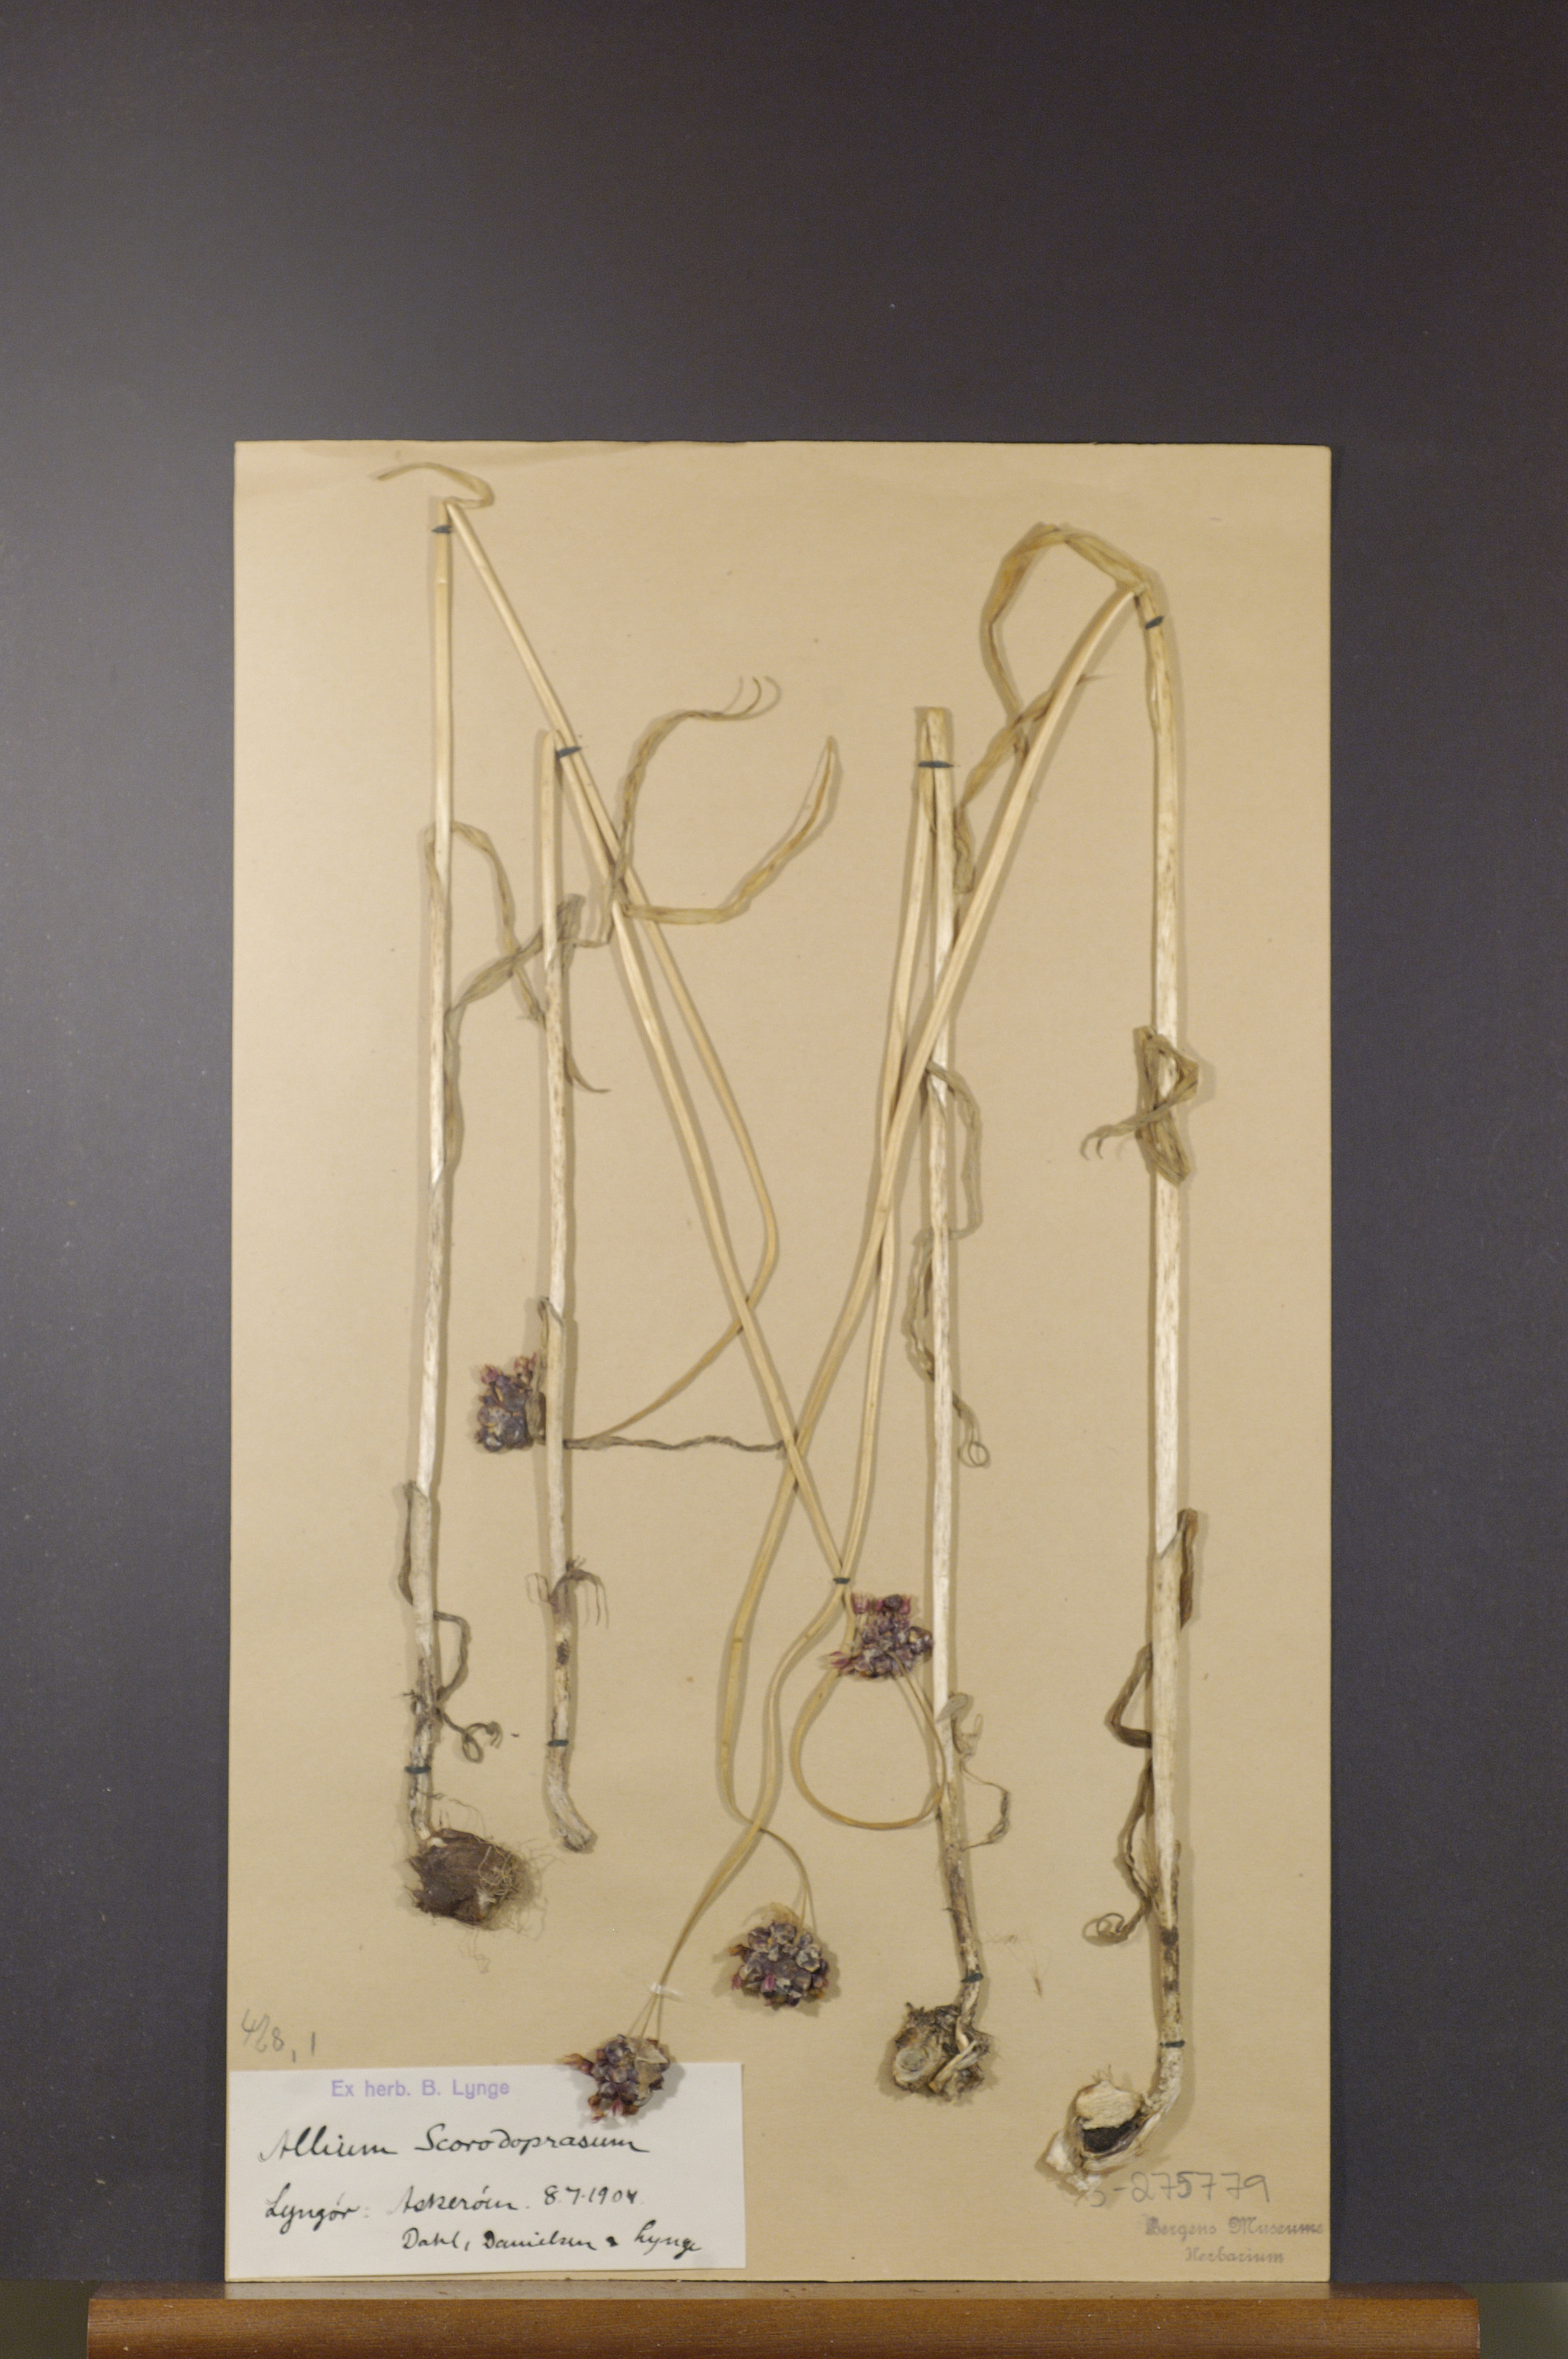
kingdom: Plantae
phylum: Tracheophyta
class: Liliopsida
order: Asparagales
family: Amaryllidaceae
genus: Allium
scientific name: Allium scorodoprasum
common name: Sand leek
